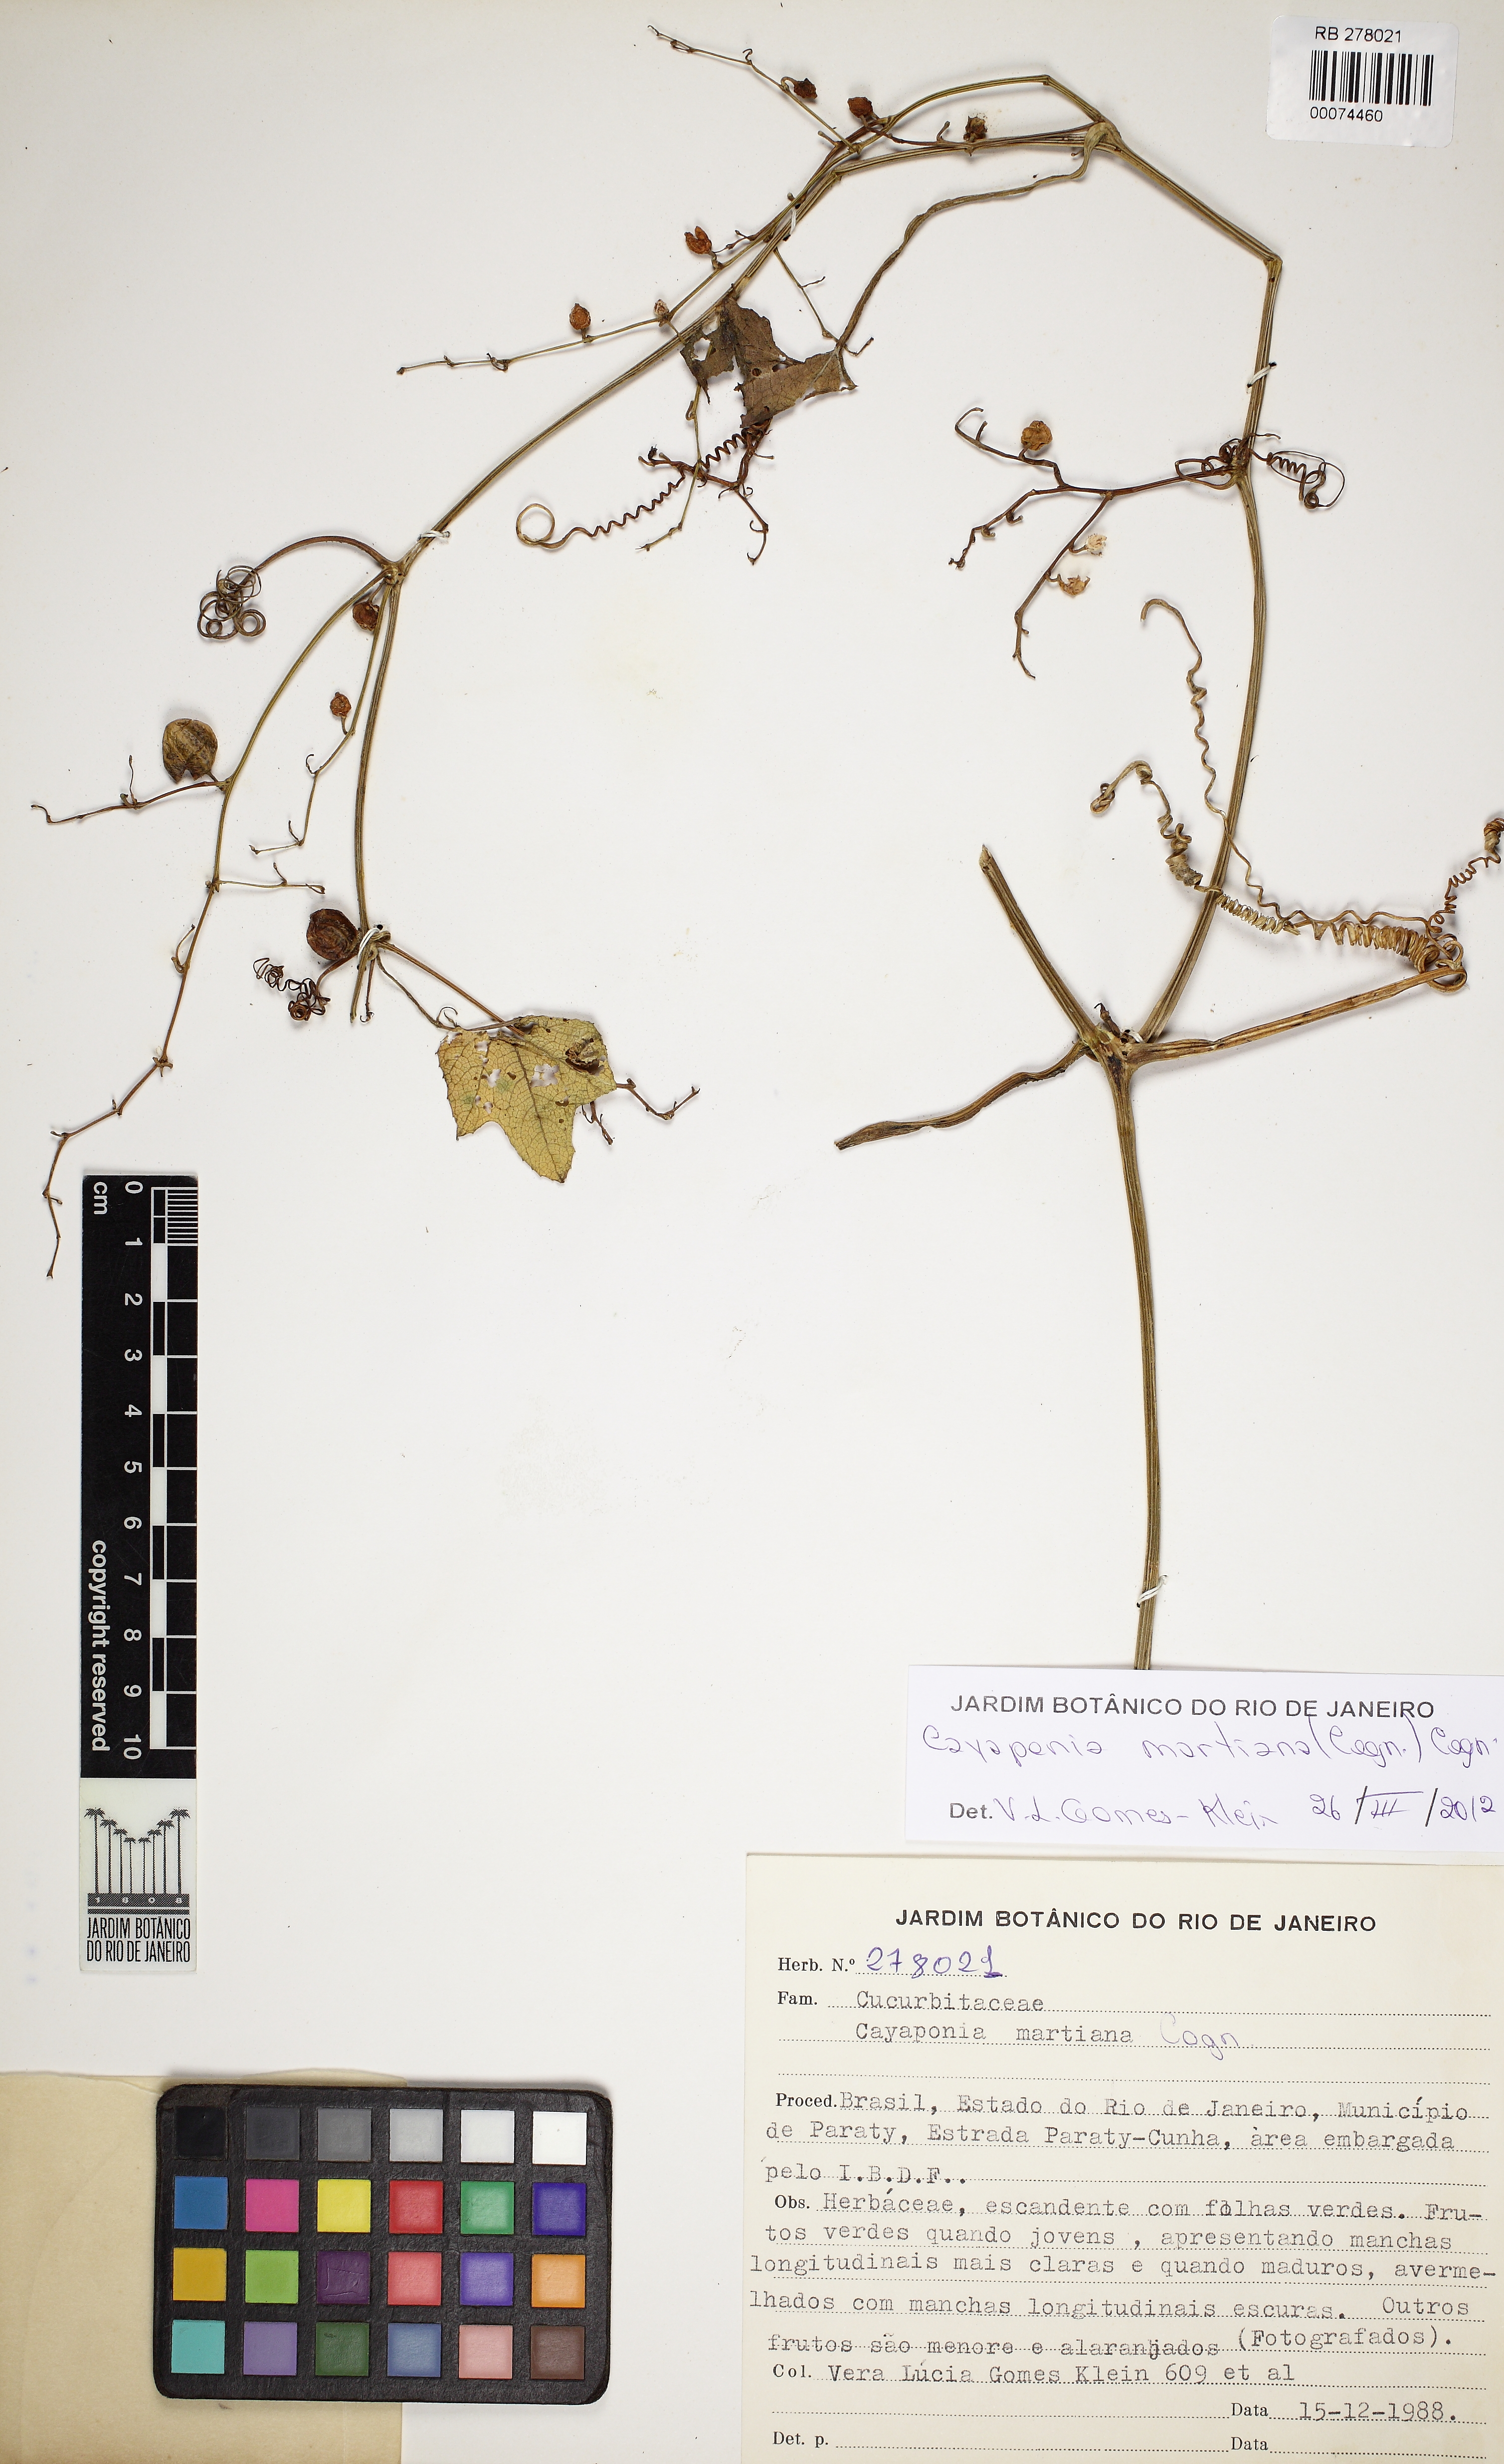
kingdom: Plantae
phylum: Tracheophyta
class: Magnoliopsida
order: Cucurbitales
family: Cucurbitaceae
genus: Cayaponia
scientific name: Cayaponia martiana
